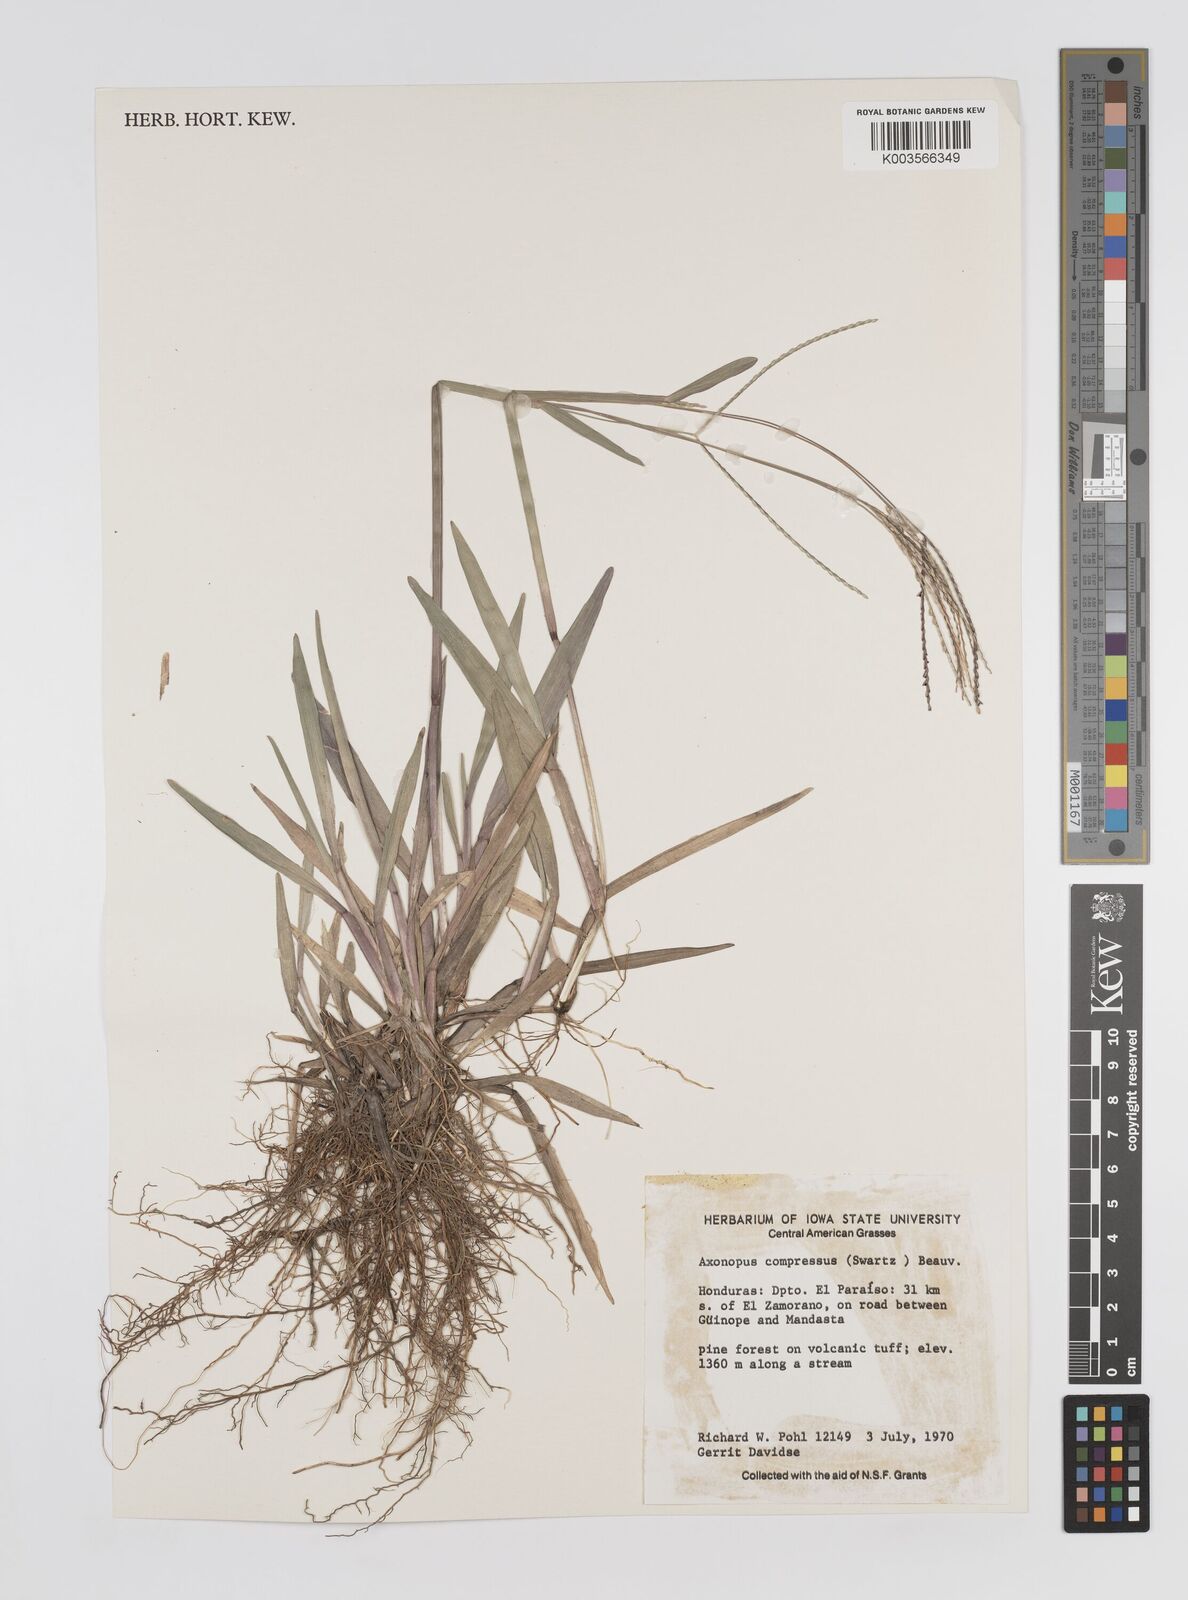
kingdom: Plantae
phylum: Tracheophyta
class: Liliopsida
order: Poales
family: Poaceae
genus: Axonopus
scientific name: Axonopus compressus
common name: American carpet grass
